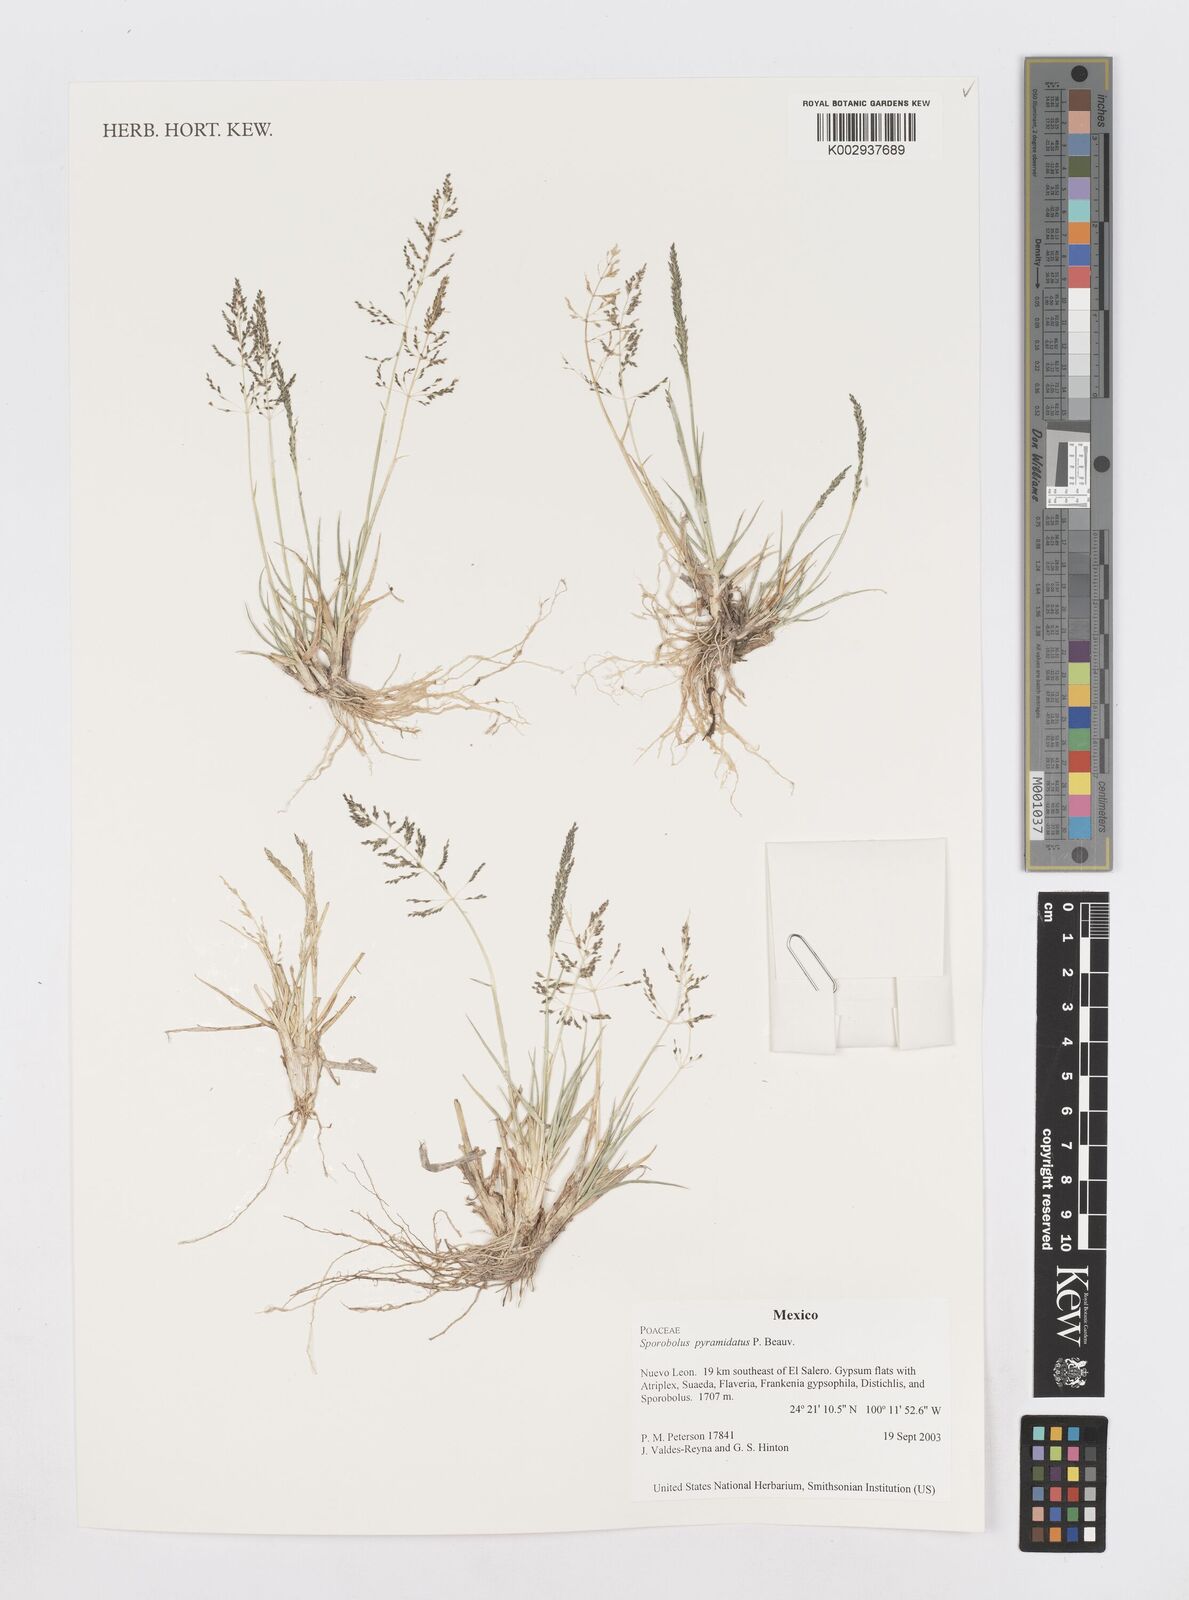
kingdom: Plantae
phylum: Tracheophyta
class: Liliopsida
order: Poales
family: Poaceae
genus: Sporobolus
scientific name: Sporobolus pyramidatus
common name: Whorled dropseed
